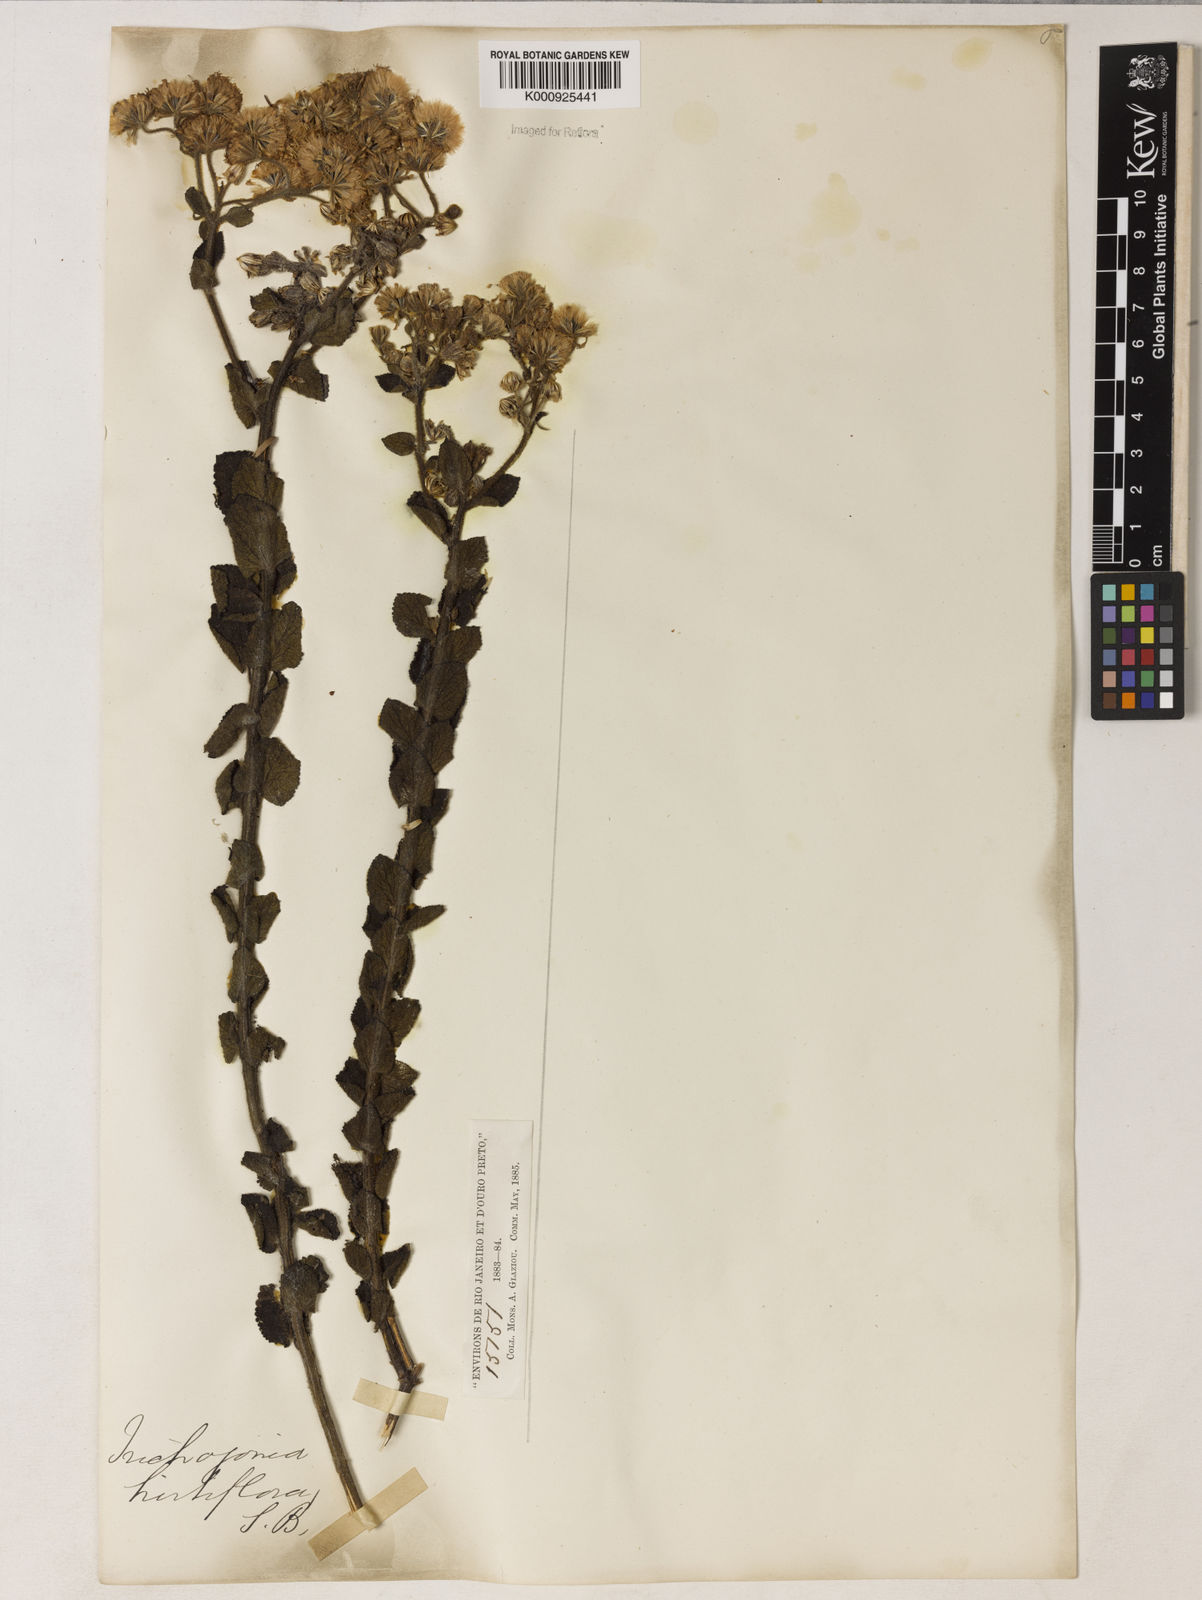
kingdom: Plantae
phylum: Tracheophyta
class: Magnoliopsida
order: Asterales
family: Asteraceae
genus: Trichogonia
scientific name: Trichogonia hirtiflora
